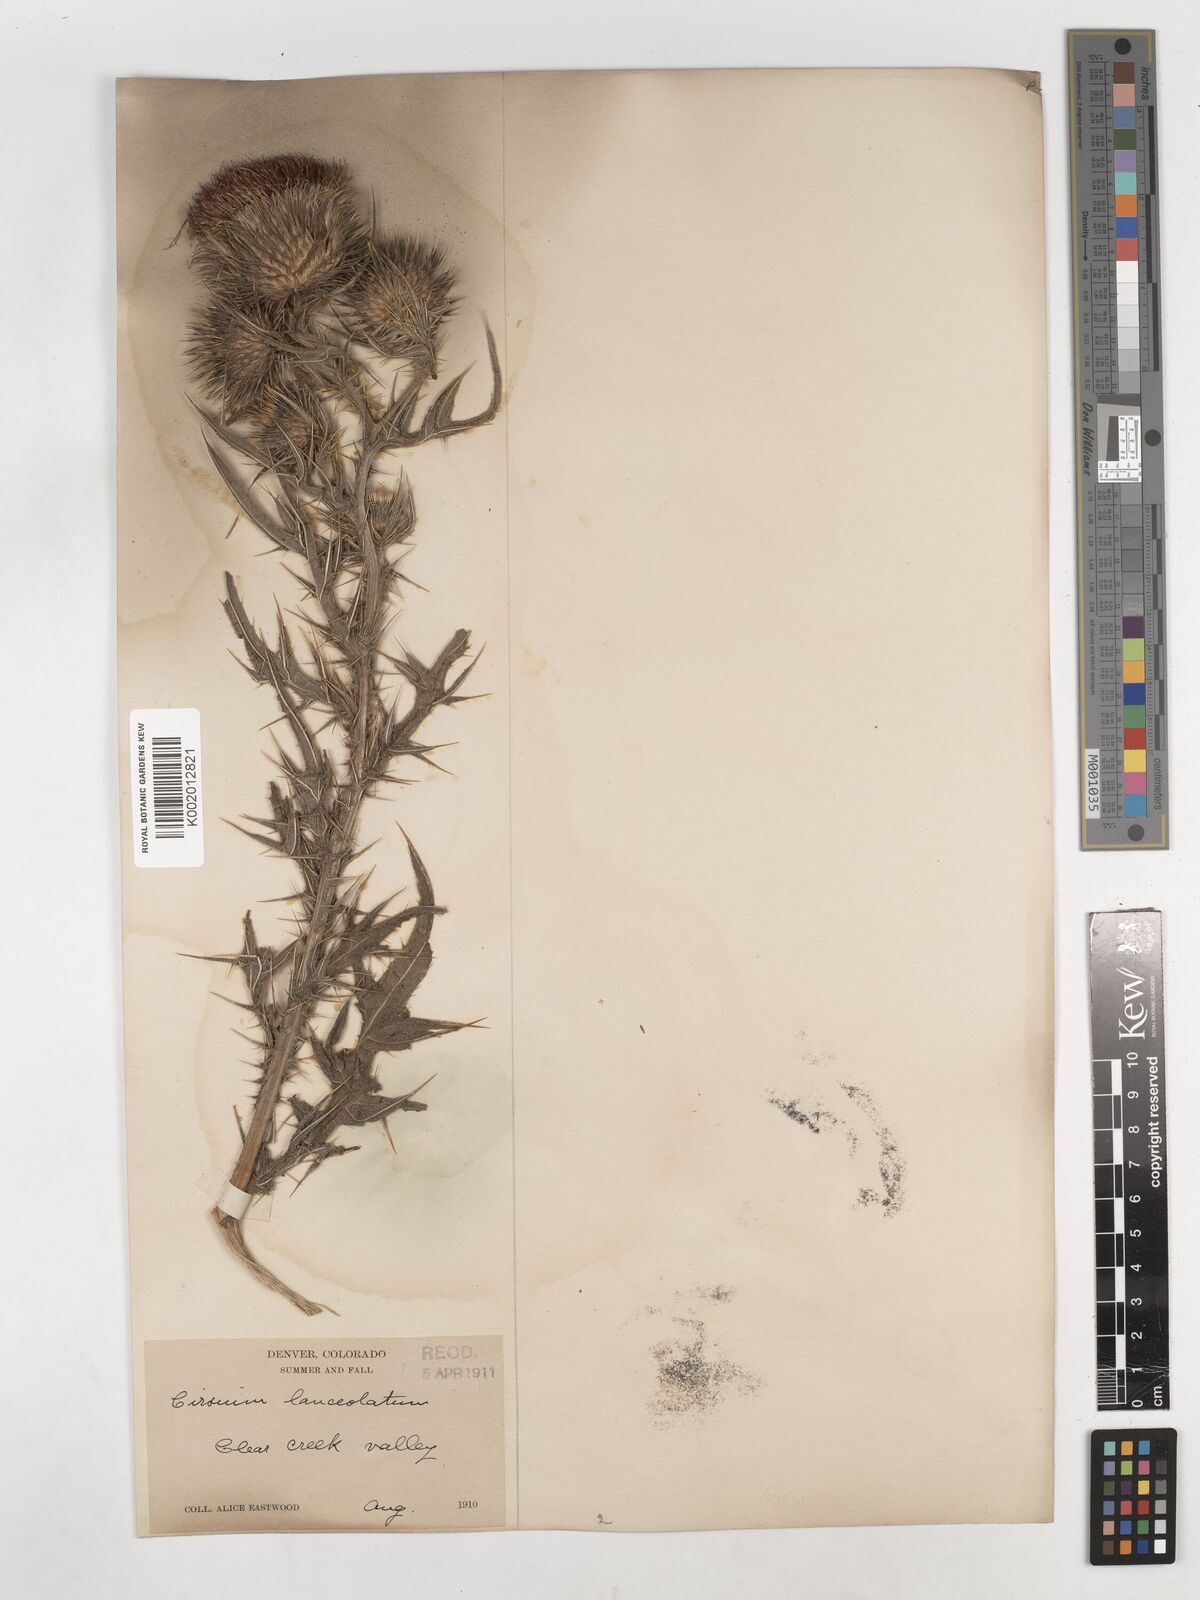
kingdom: Plantae
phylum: Tracheophyta
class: Magnoliopsida
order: Asterales
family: Asteraceae
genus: Cirsium
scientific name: Cirsium
